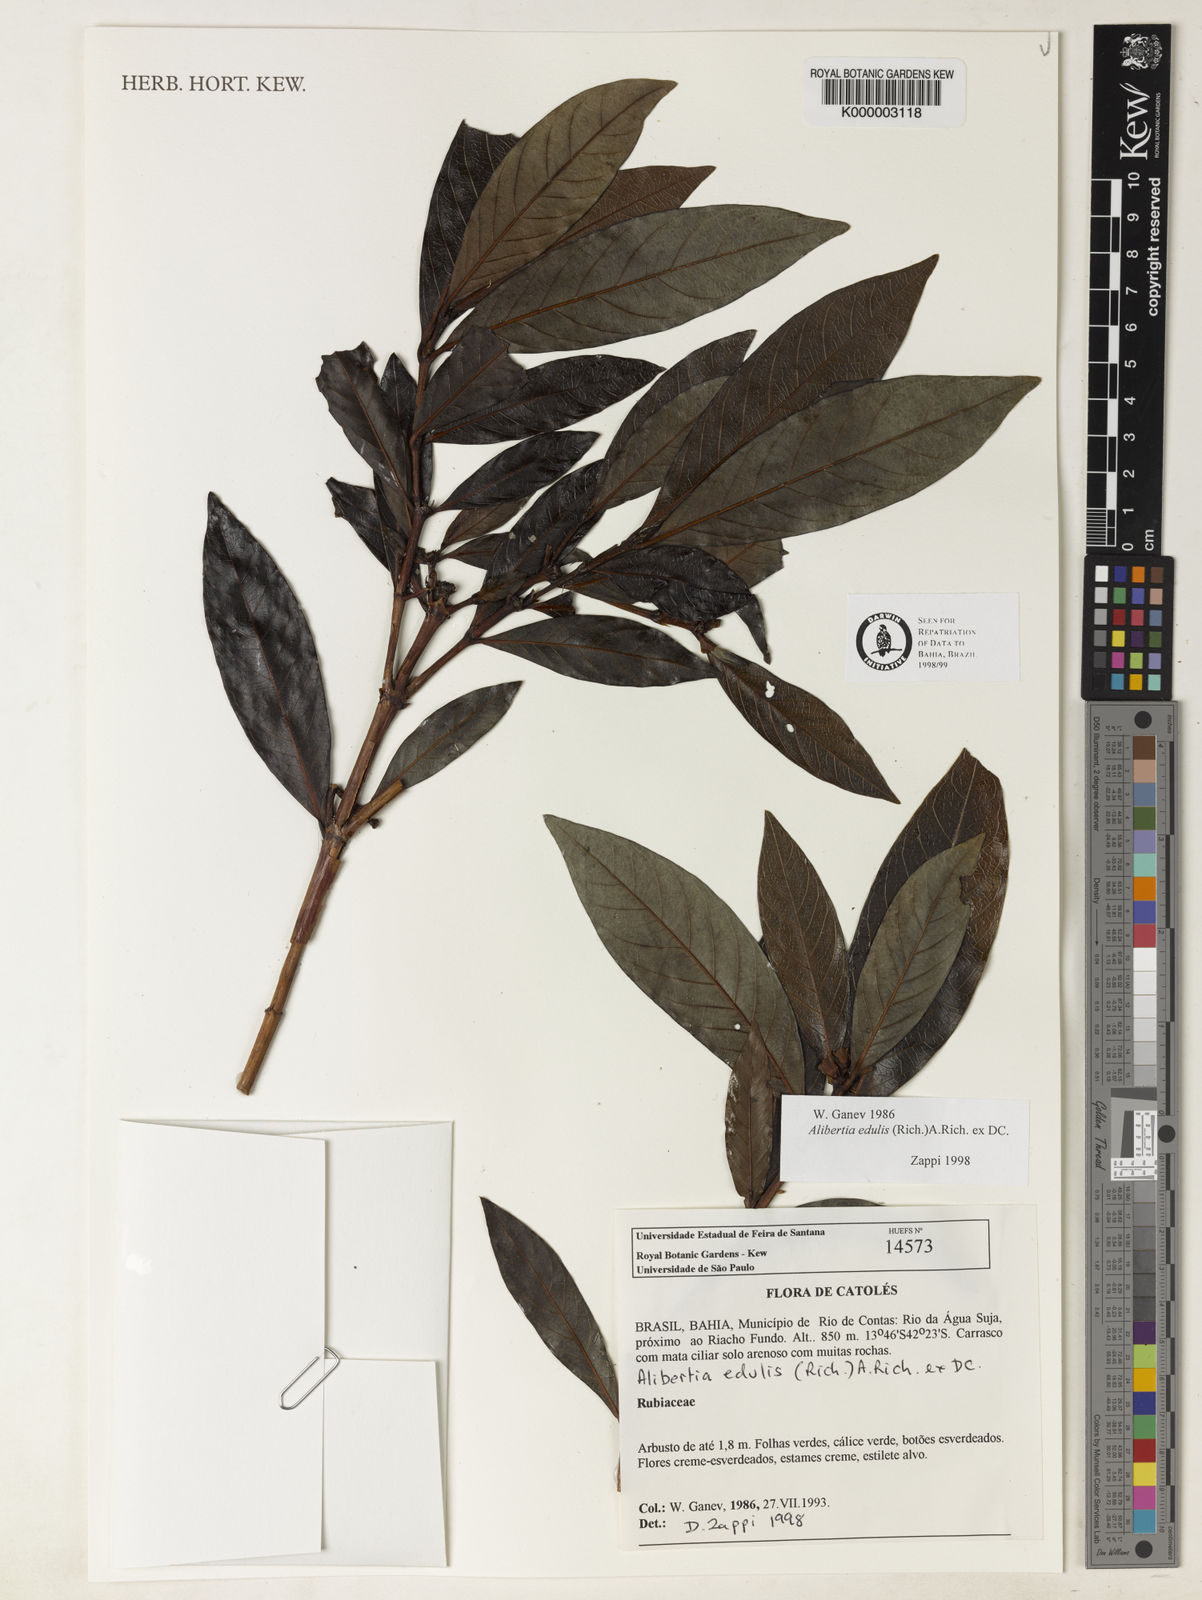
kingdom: Plantae
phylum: Tracheophyta
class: Magnoliopsida
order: Gentianales
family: Rubiaceae
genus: Alibertia
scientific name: Alibertia edulis
